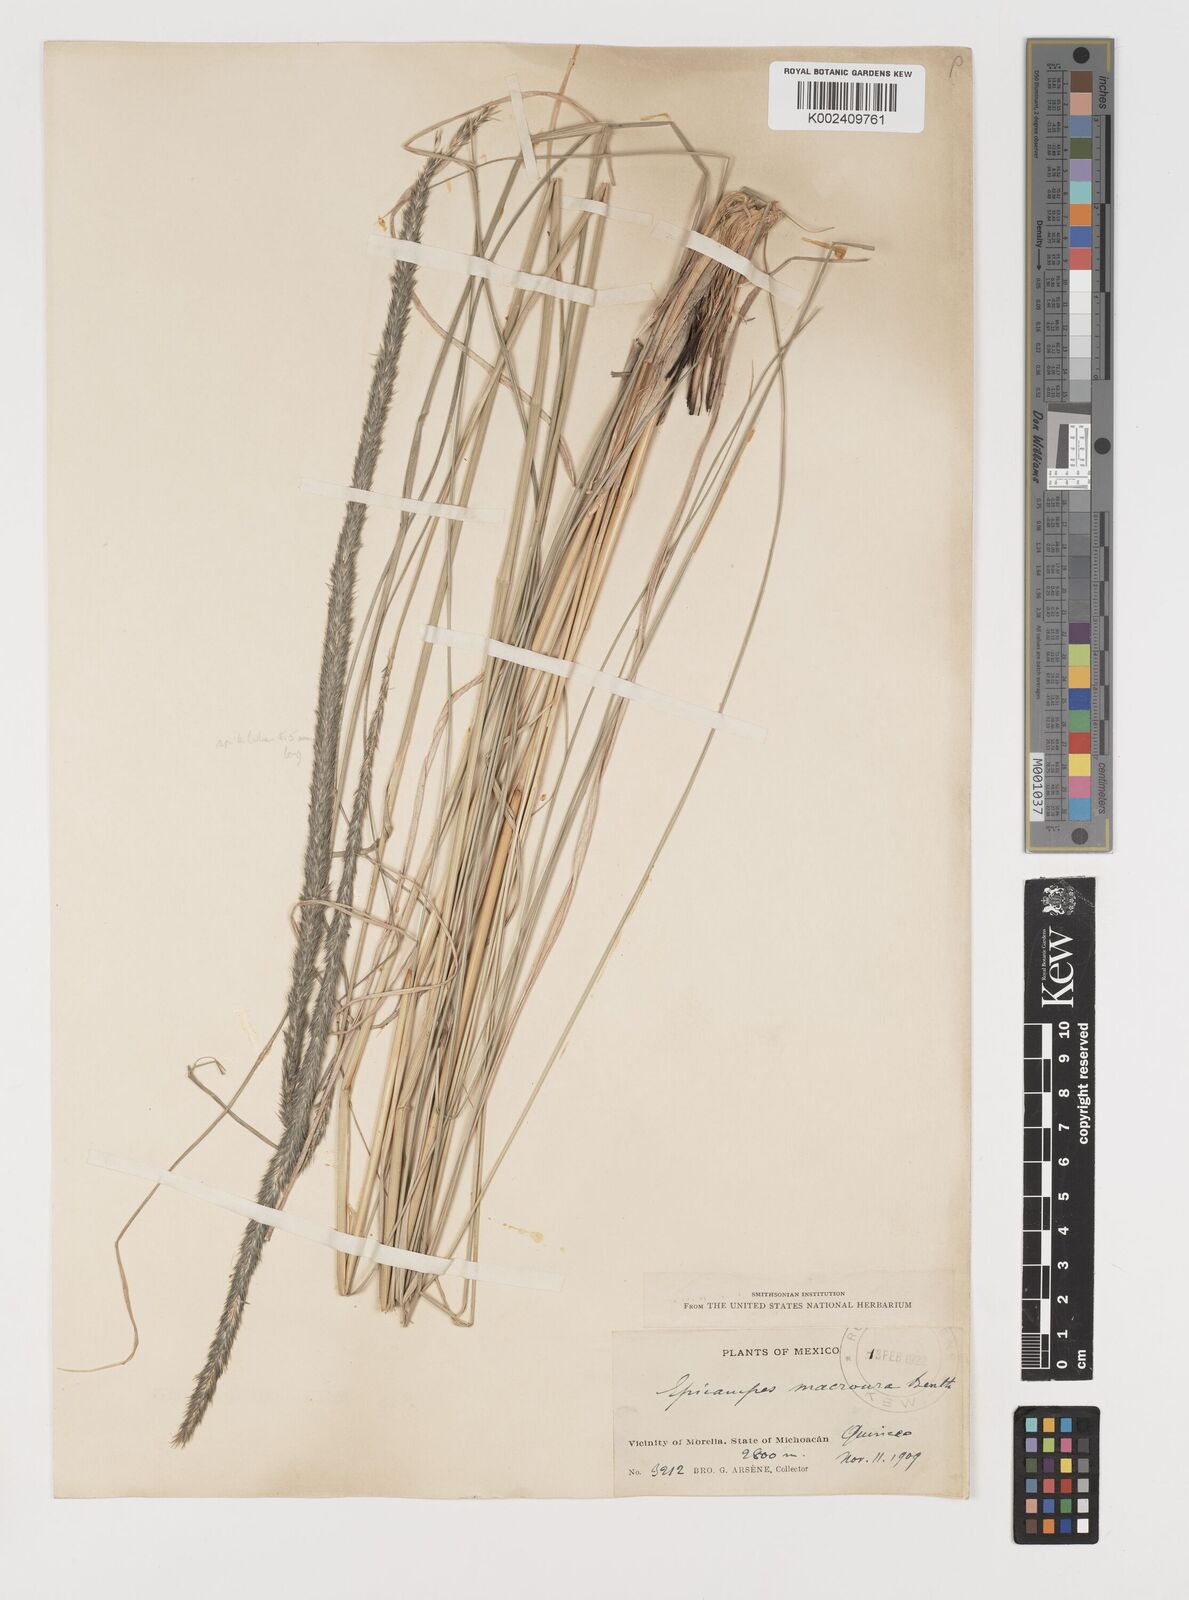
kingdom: Plantae
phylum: Tracheophyta
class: Liliopsida
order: Poales
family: Poaceae
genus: Muhlenbergia
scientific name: Muhlenbergia macroura
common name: Mexican broomroot
